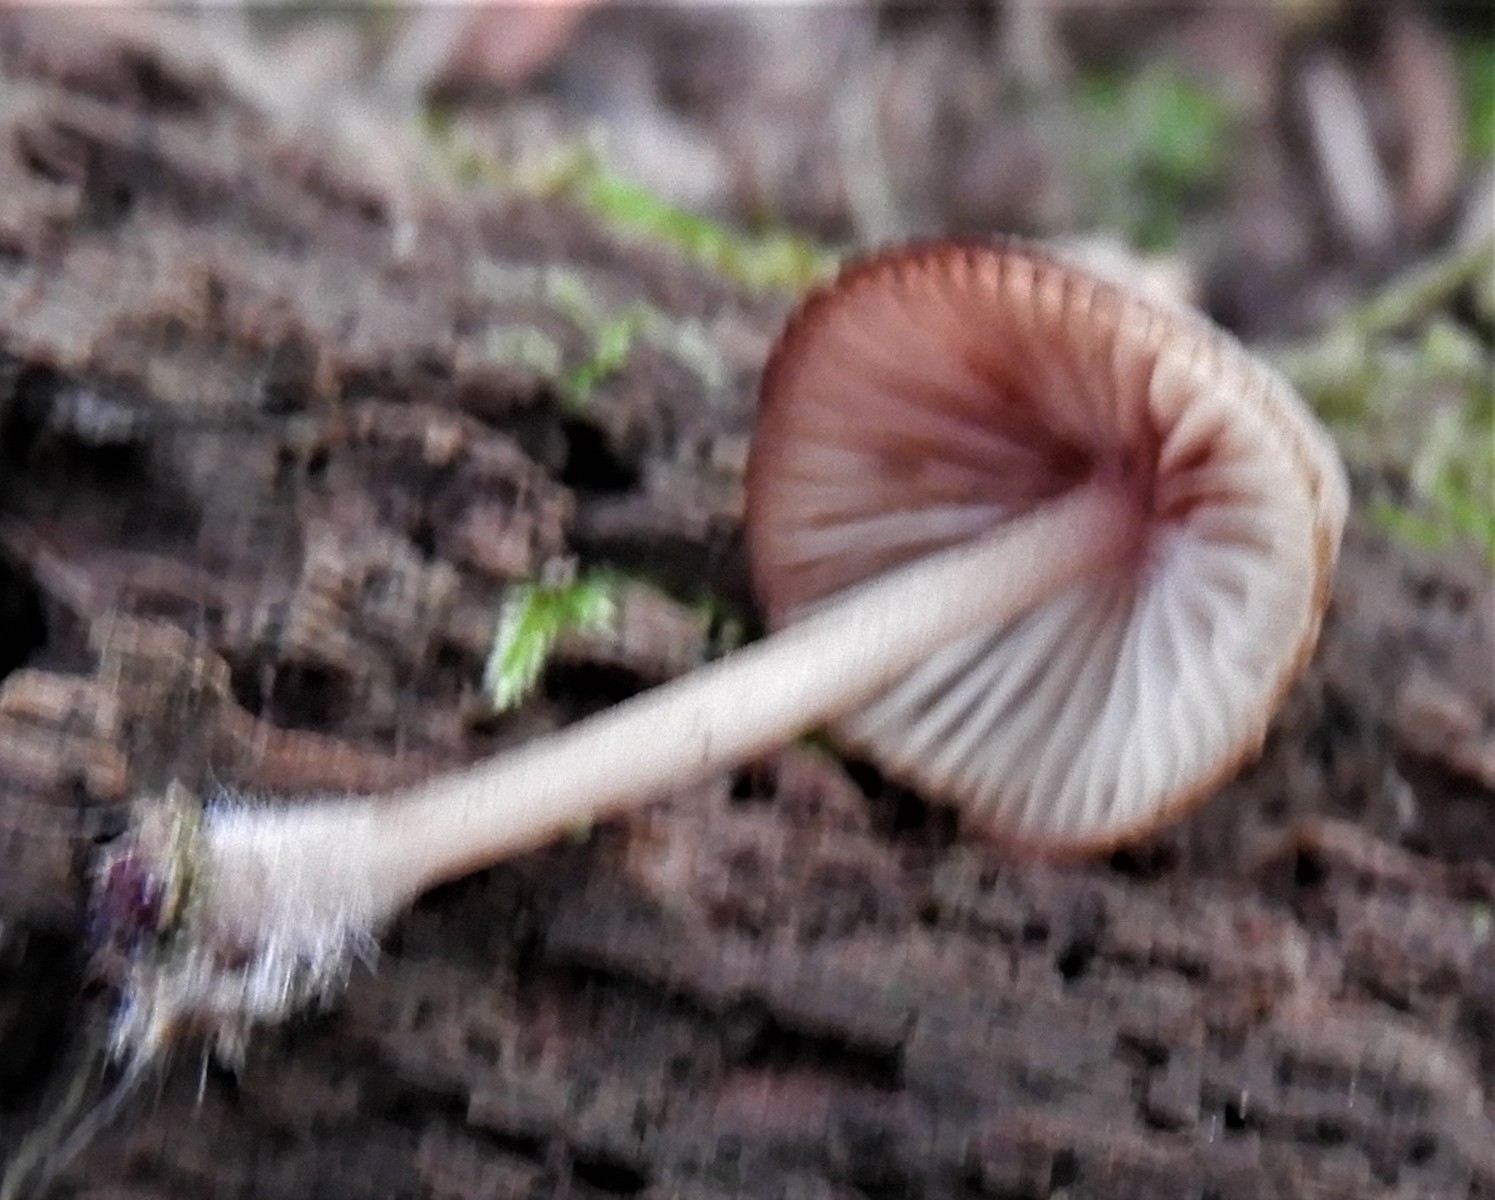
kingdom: Fungi
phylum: Basidiomycota
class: Agaricomycetes
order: Agaricales
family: Mycenaceae
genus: Mycena
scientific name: Mycena haematopus
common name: blødende huesvamp
